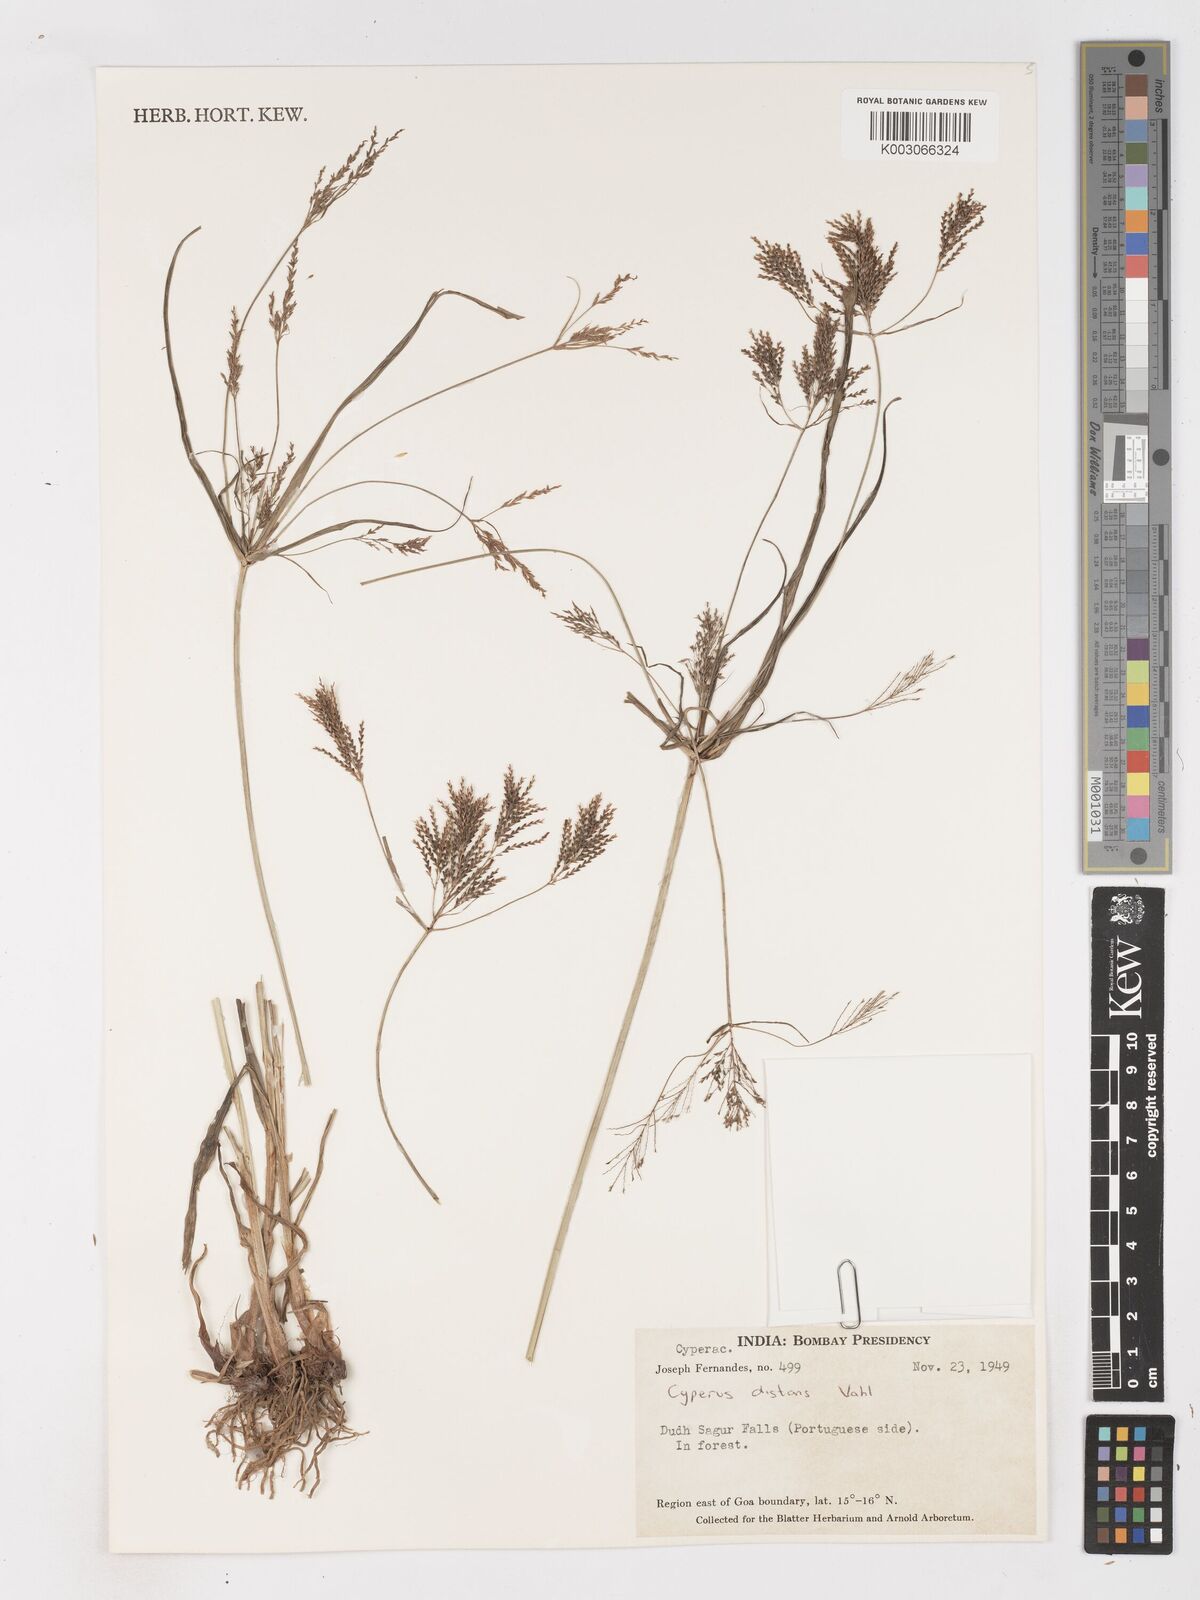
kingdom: Plantae
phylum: Tracheophyta
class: Liliopsida
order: Poales
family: Cyperaceae
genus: Cyperus
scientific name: Cyperus distans
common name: Slender cyperus
